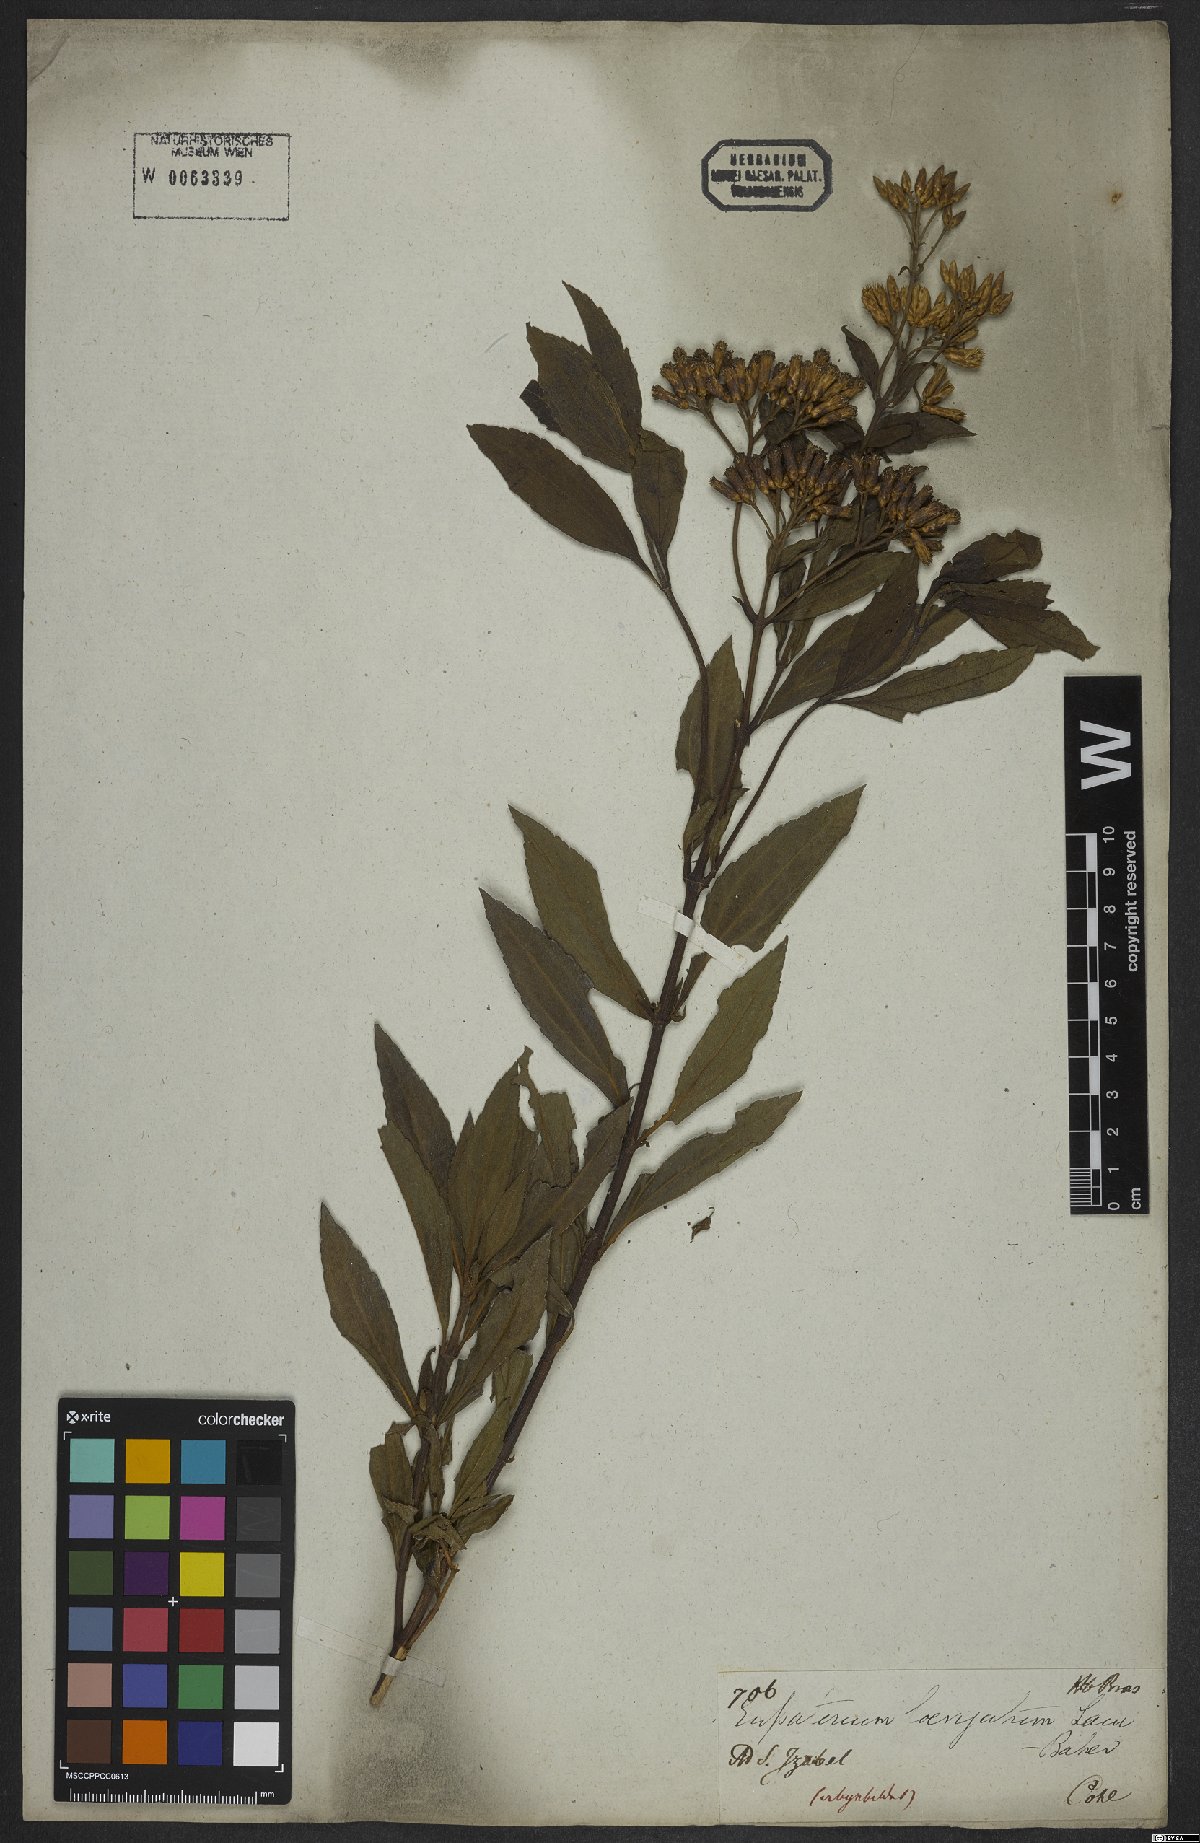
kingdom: Plantae
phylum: Tracheophyta
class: Magnoliopsida
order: Asterales
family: Asteraceae
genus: Eupatorium
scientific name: Eupatorium laevigatum
